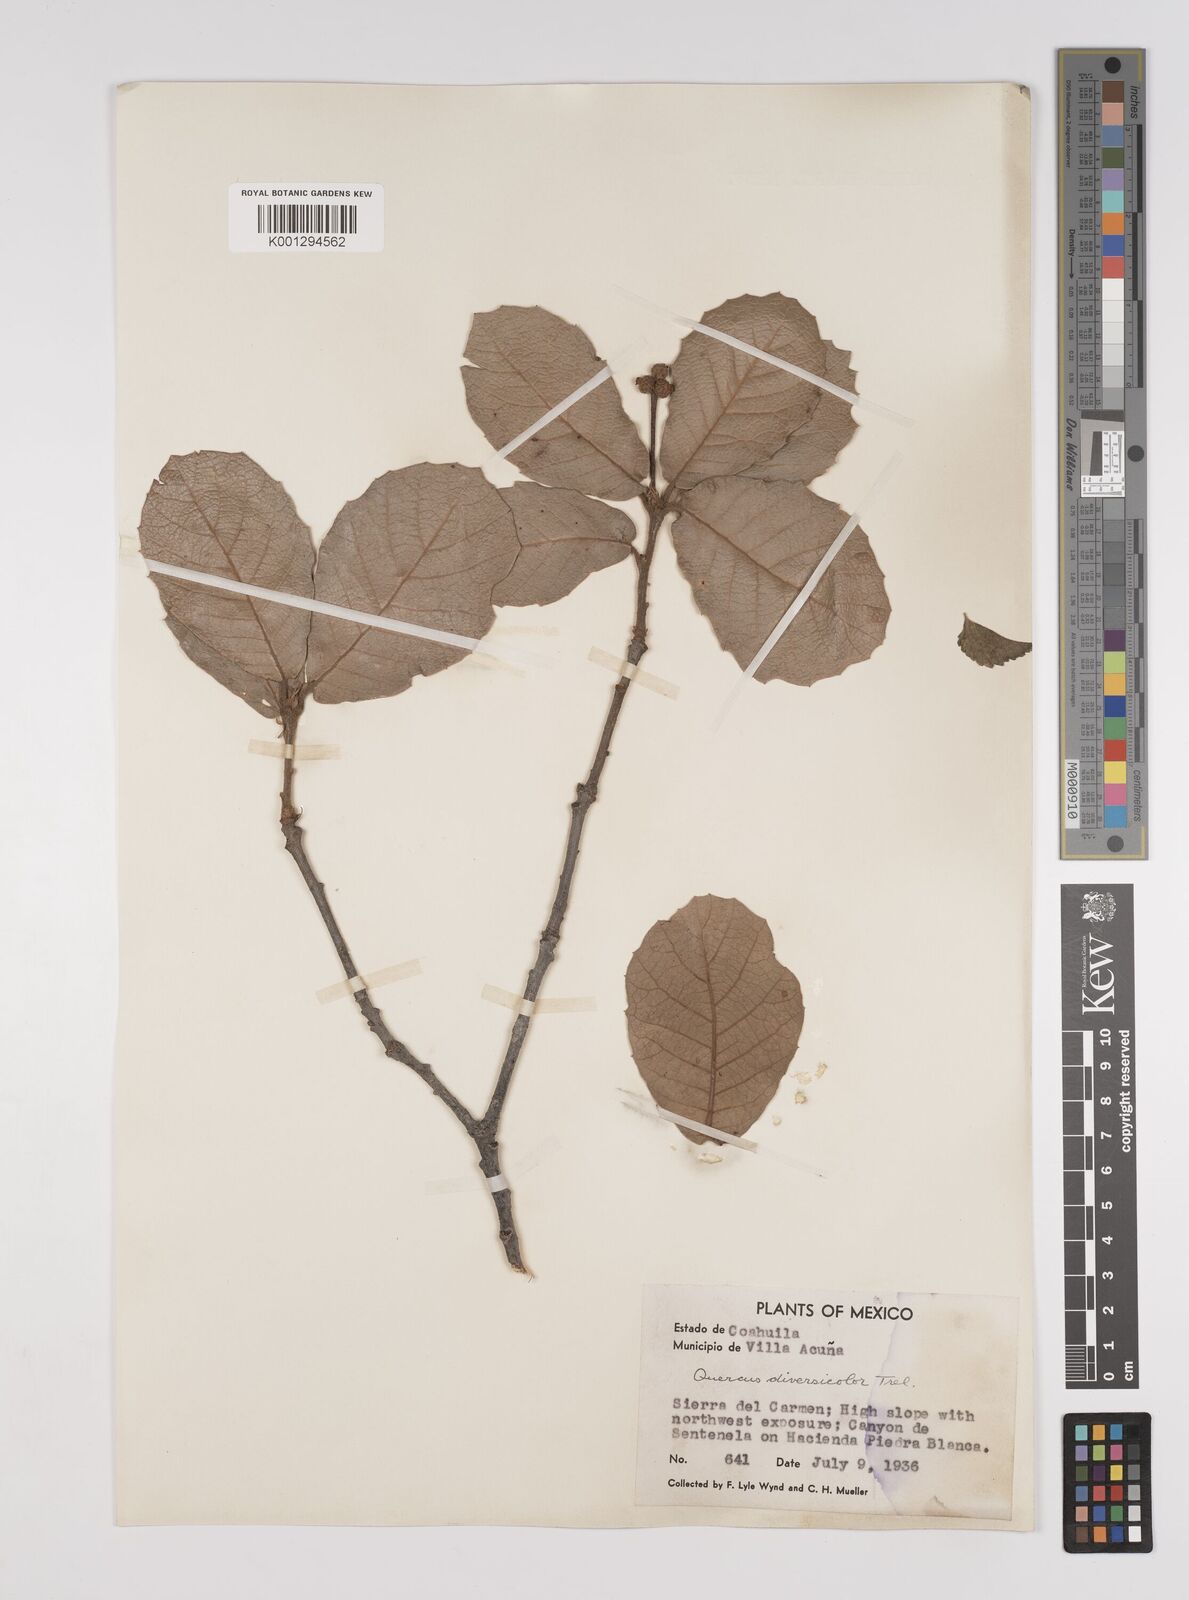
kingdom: Plantae
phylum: Tracheophyta
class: Magnoliopsida
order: Fagales
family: Fagaceae
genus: Quercus
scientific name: Quercus rugosa
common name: Netleaf oak
